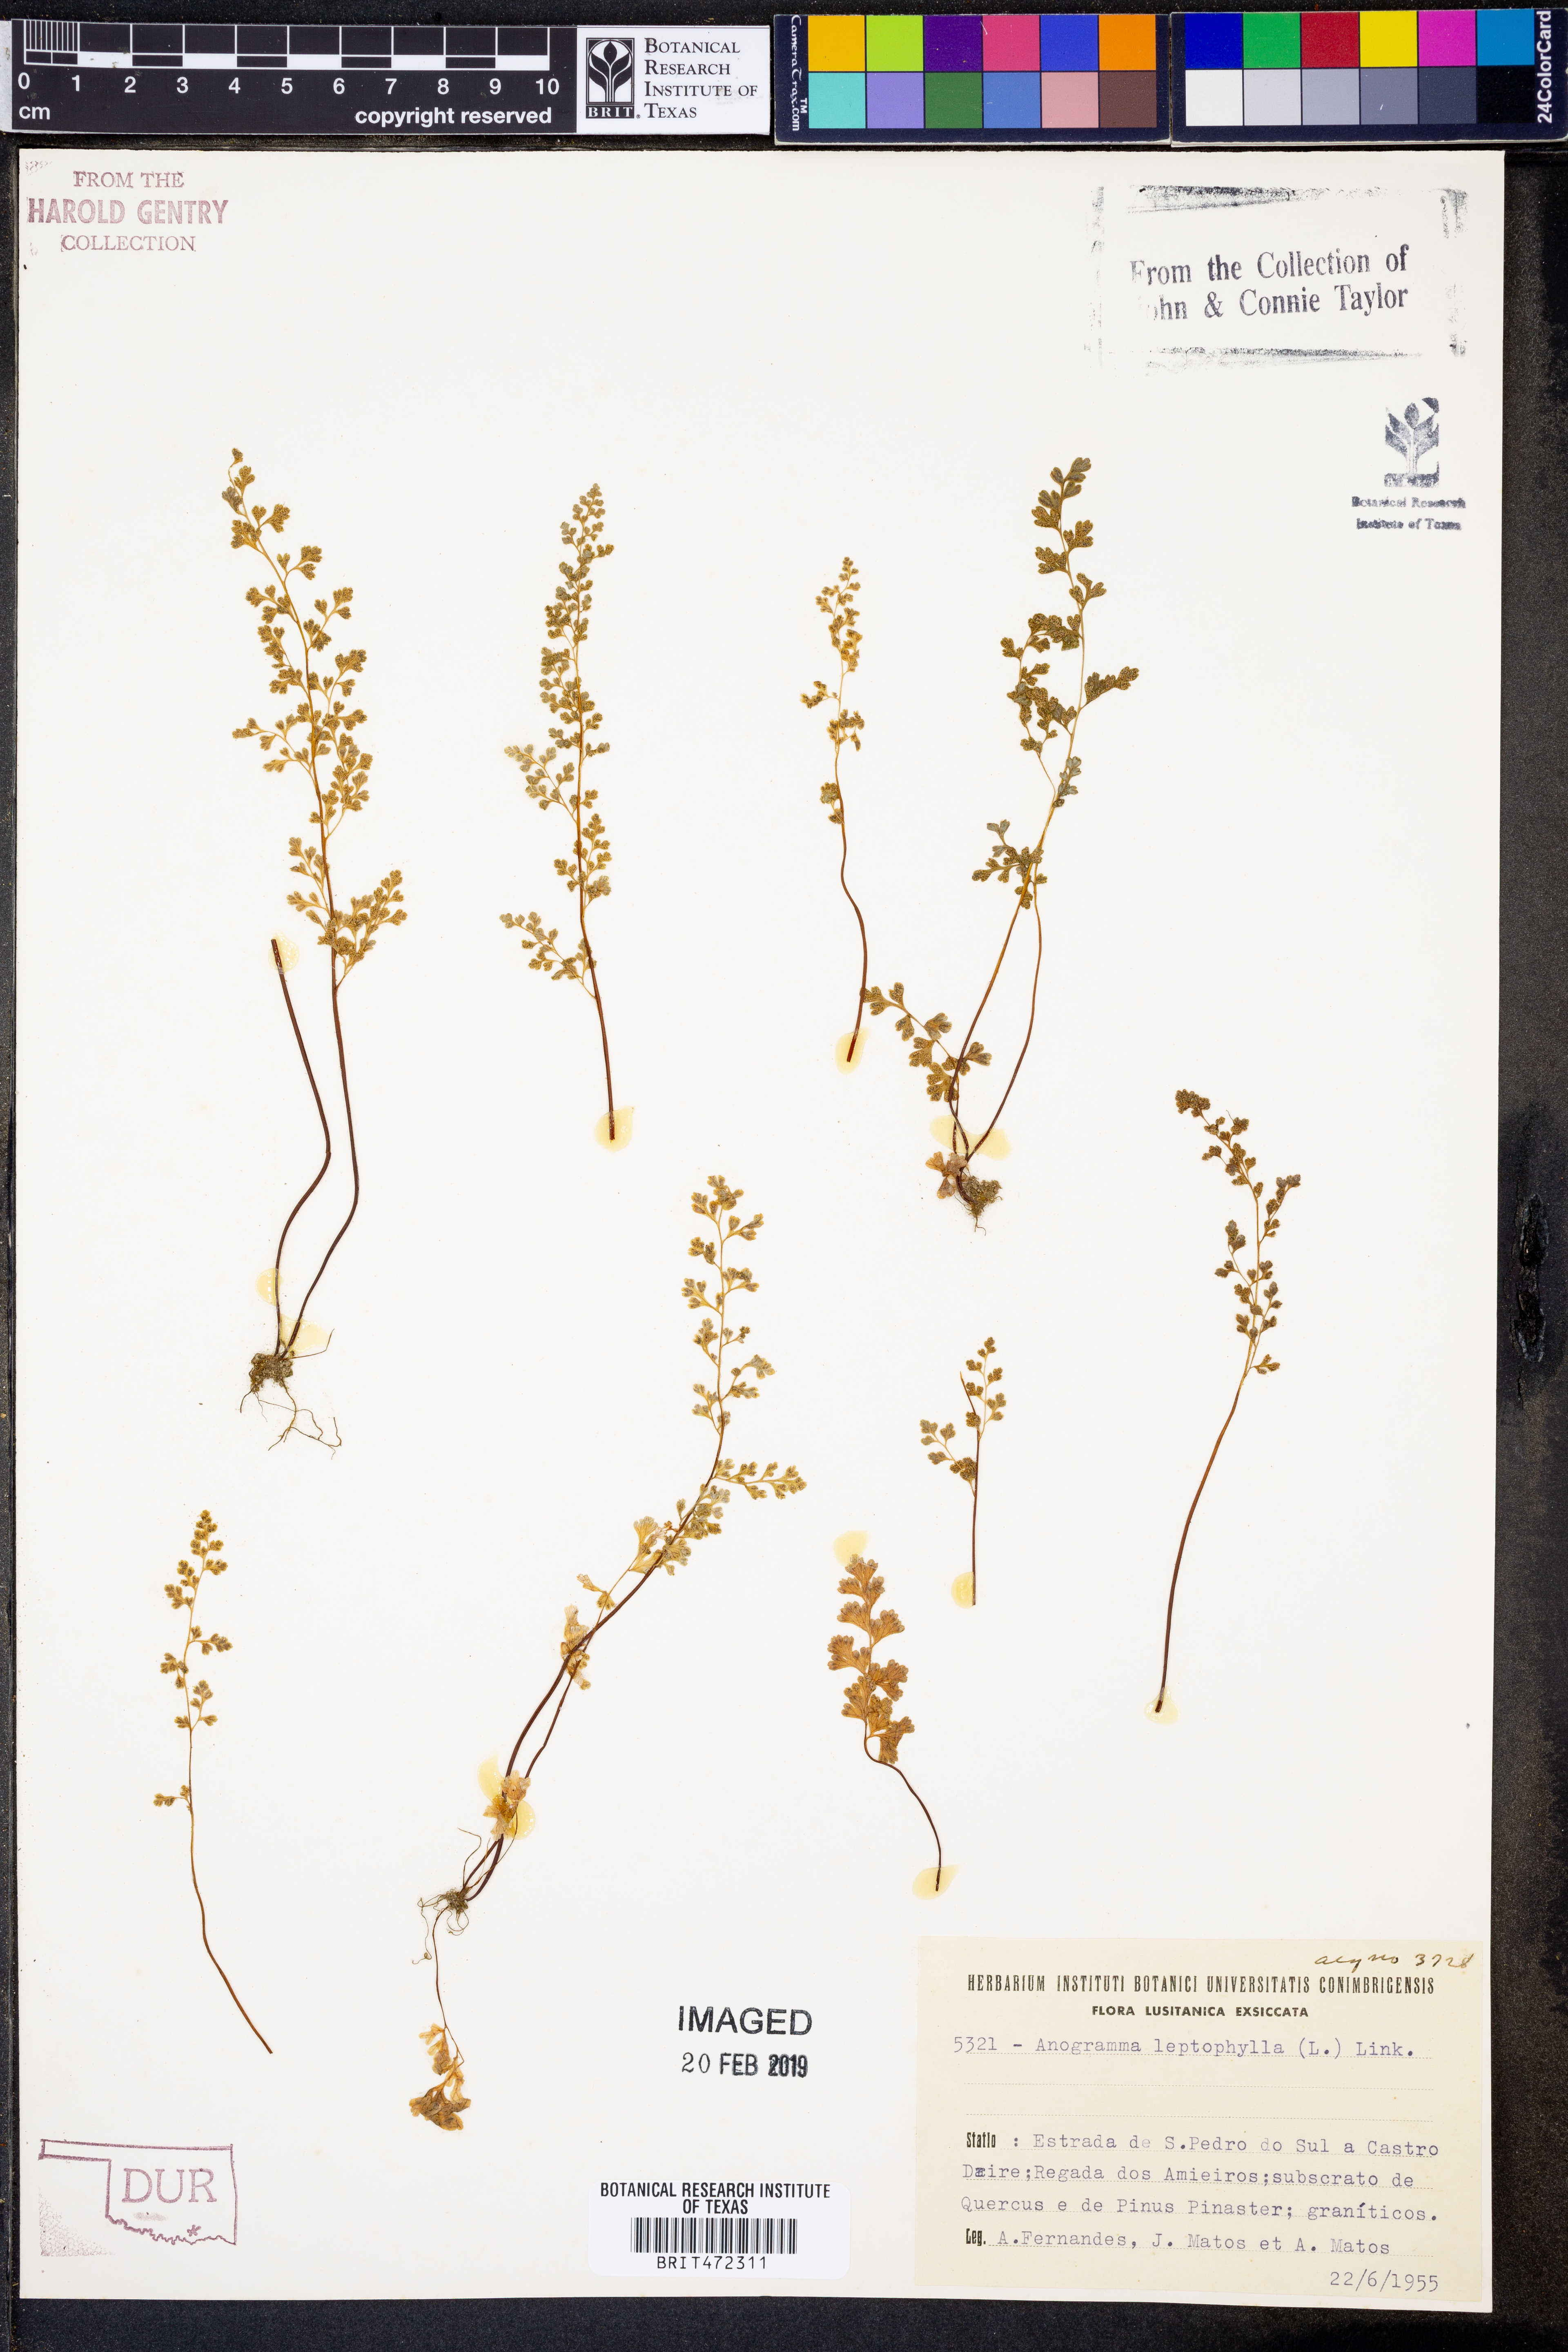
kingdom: Plantae
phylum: Tracheophyta
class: Polypodiopsida
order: Polypodiales
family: Pteridaceae
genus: Anogramma
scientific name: Anogramma leptophylla
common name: Jersey fern
